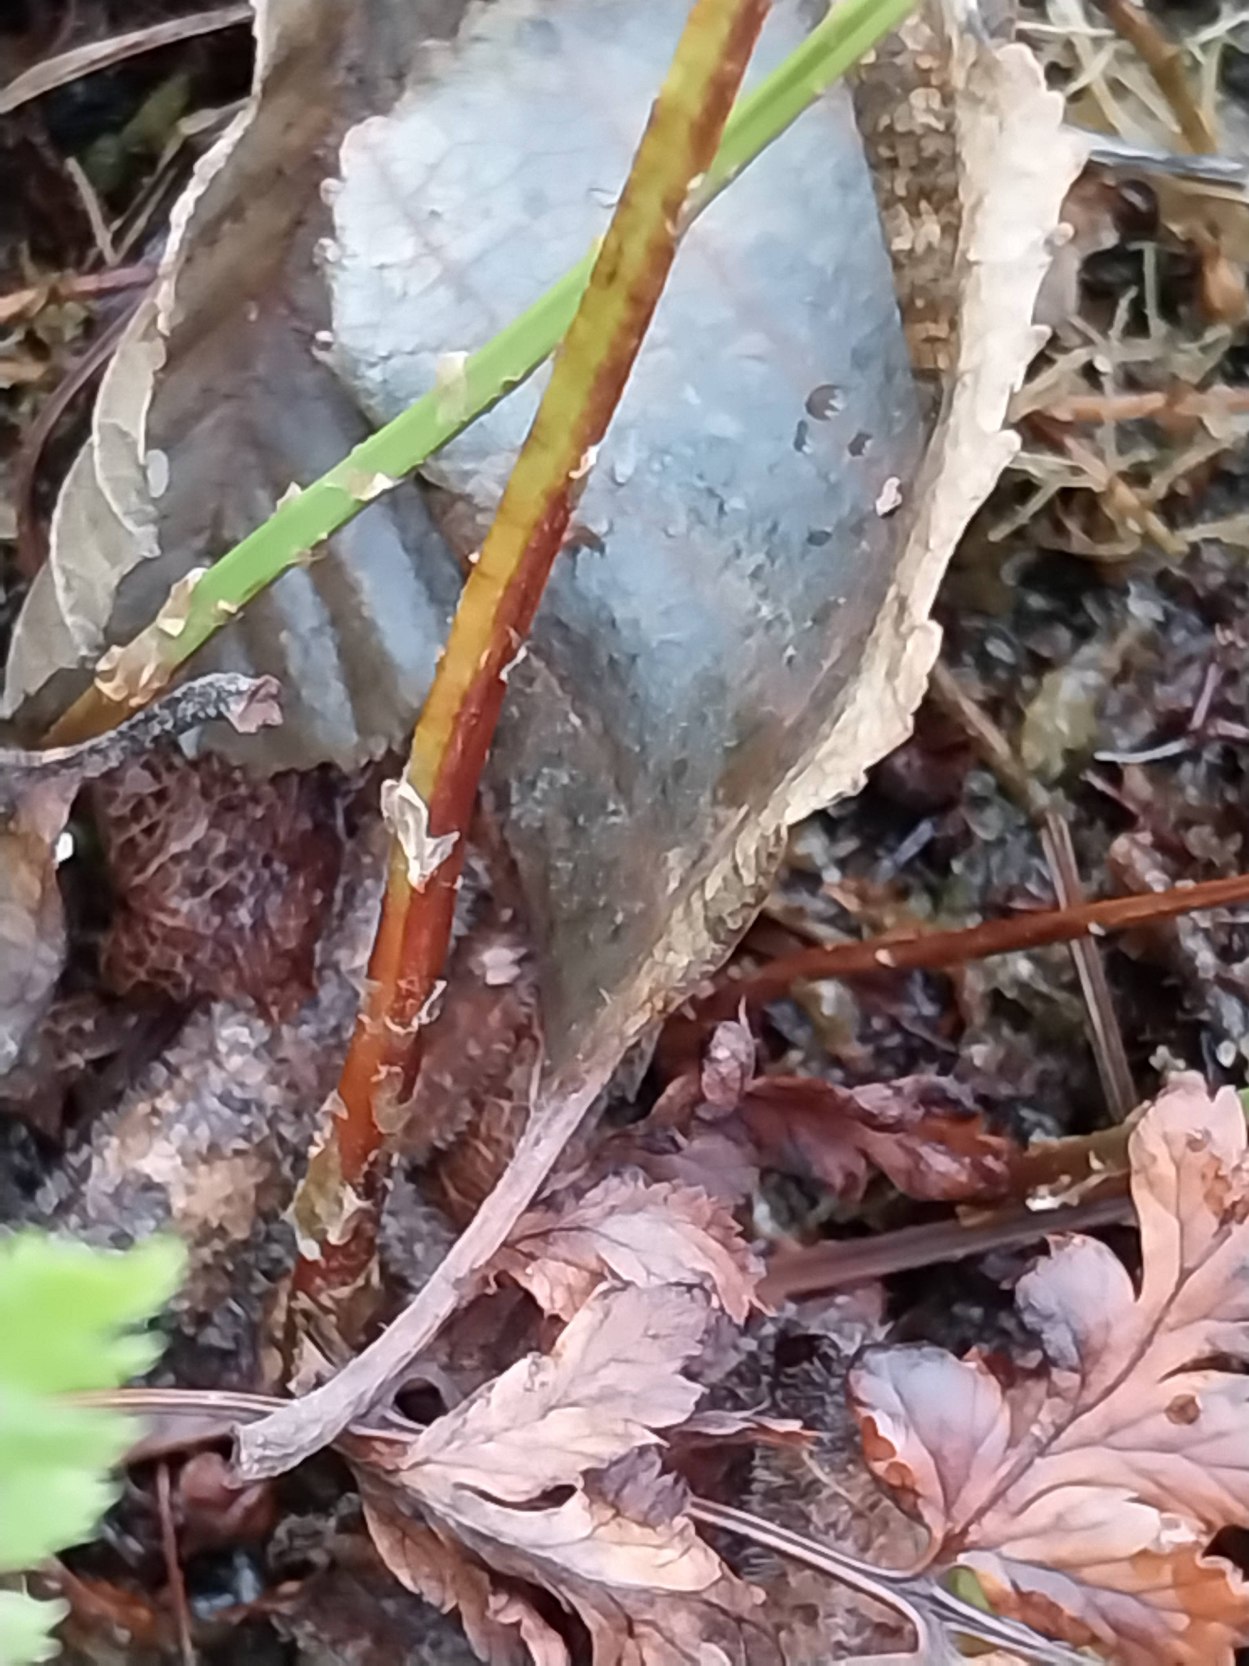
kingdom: Plantae
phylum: Tracheophyta
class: Polypodiopsida
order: Polypodiales
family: Dryopteridaceae
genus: Dryopteris
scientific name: Dryopteris carthusiana
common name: Smalbladet mangeløv
